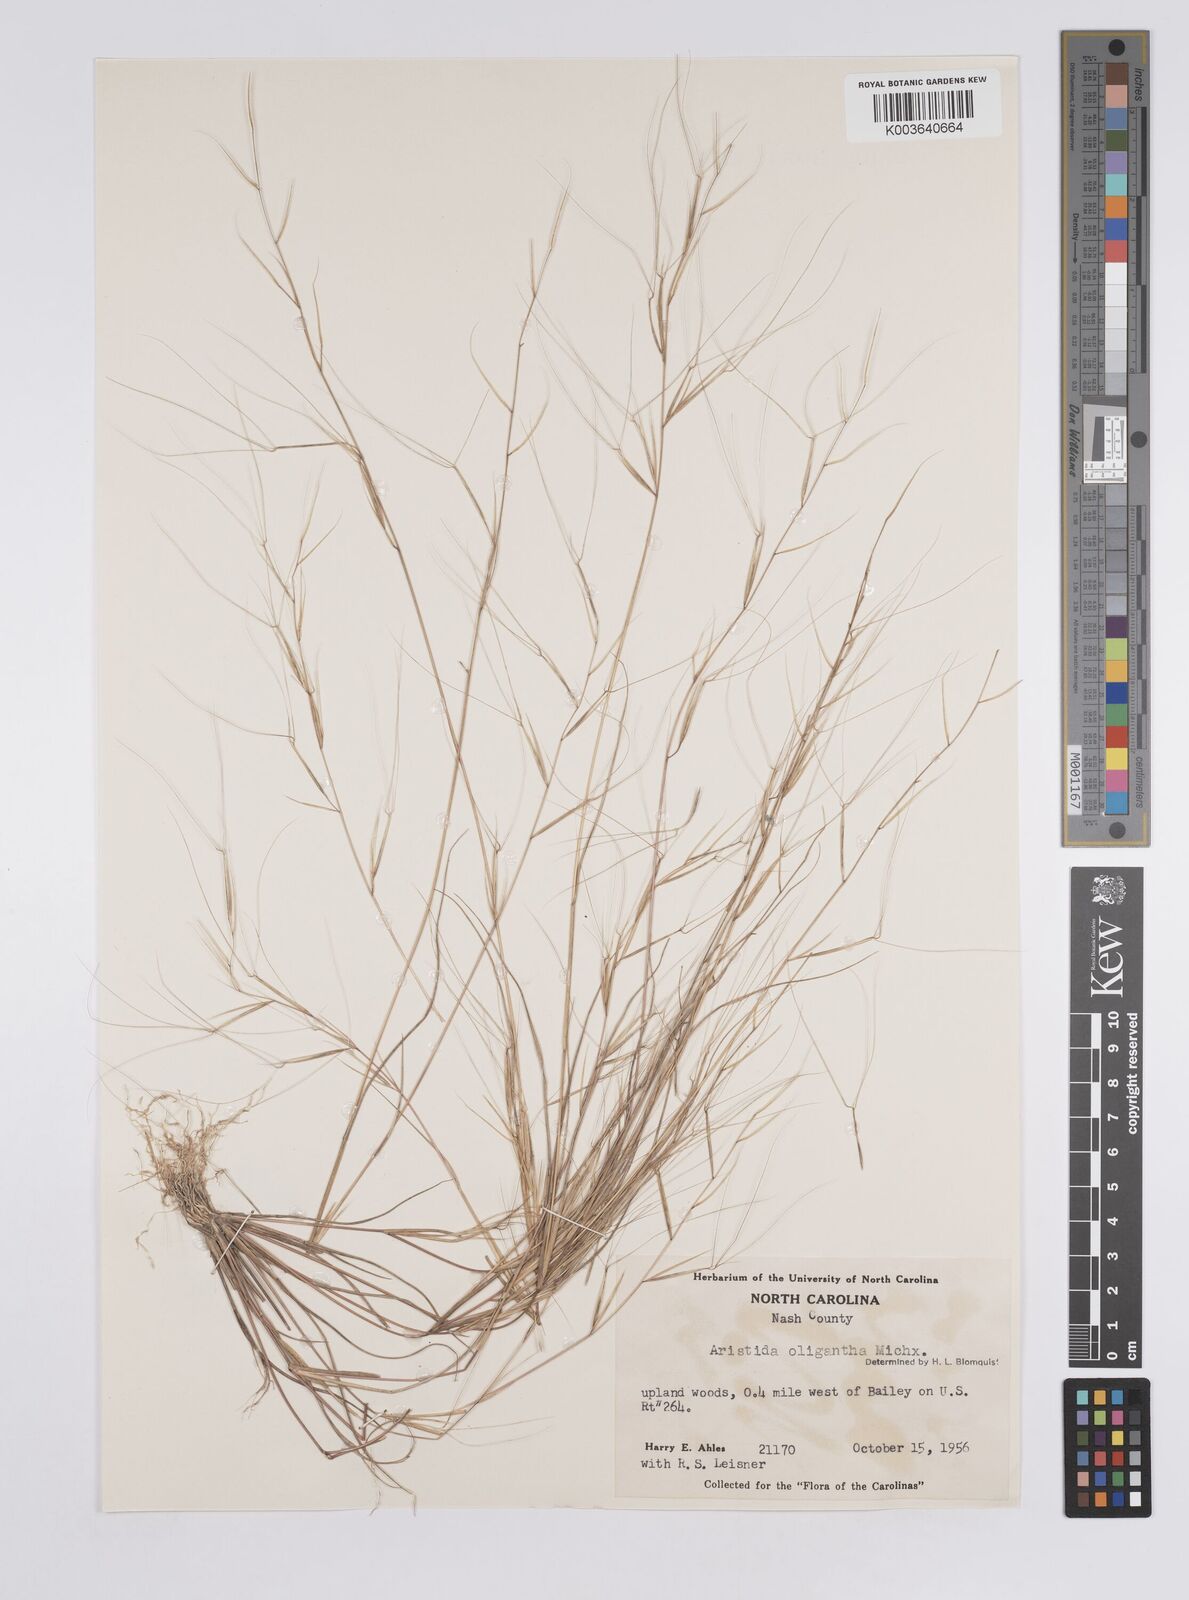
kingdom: Plantae
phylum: Tracheophyta
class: Liliopsida
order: Poales
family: Poaceae
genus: Aristida
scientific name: Aristida oligantha
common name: Few-flowered aristida
